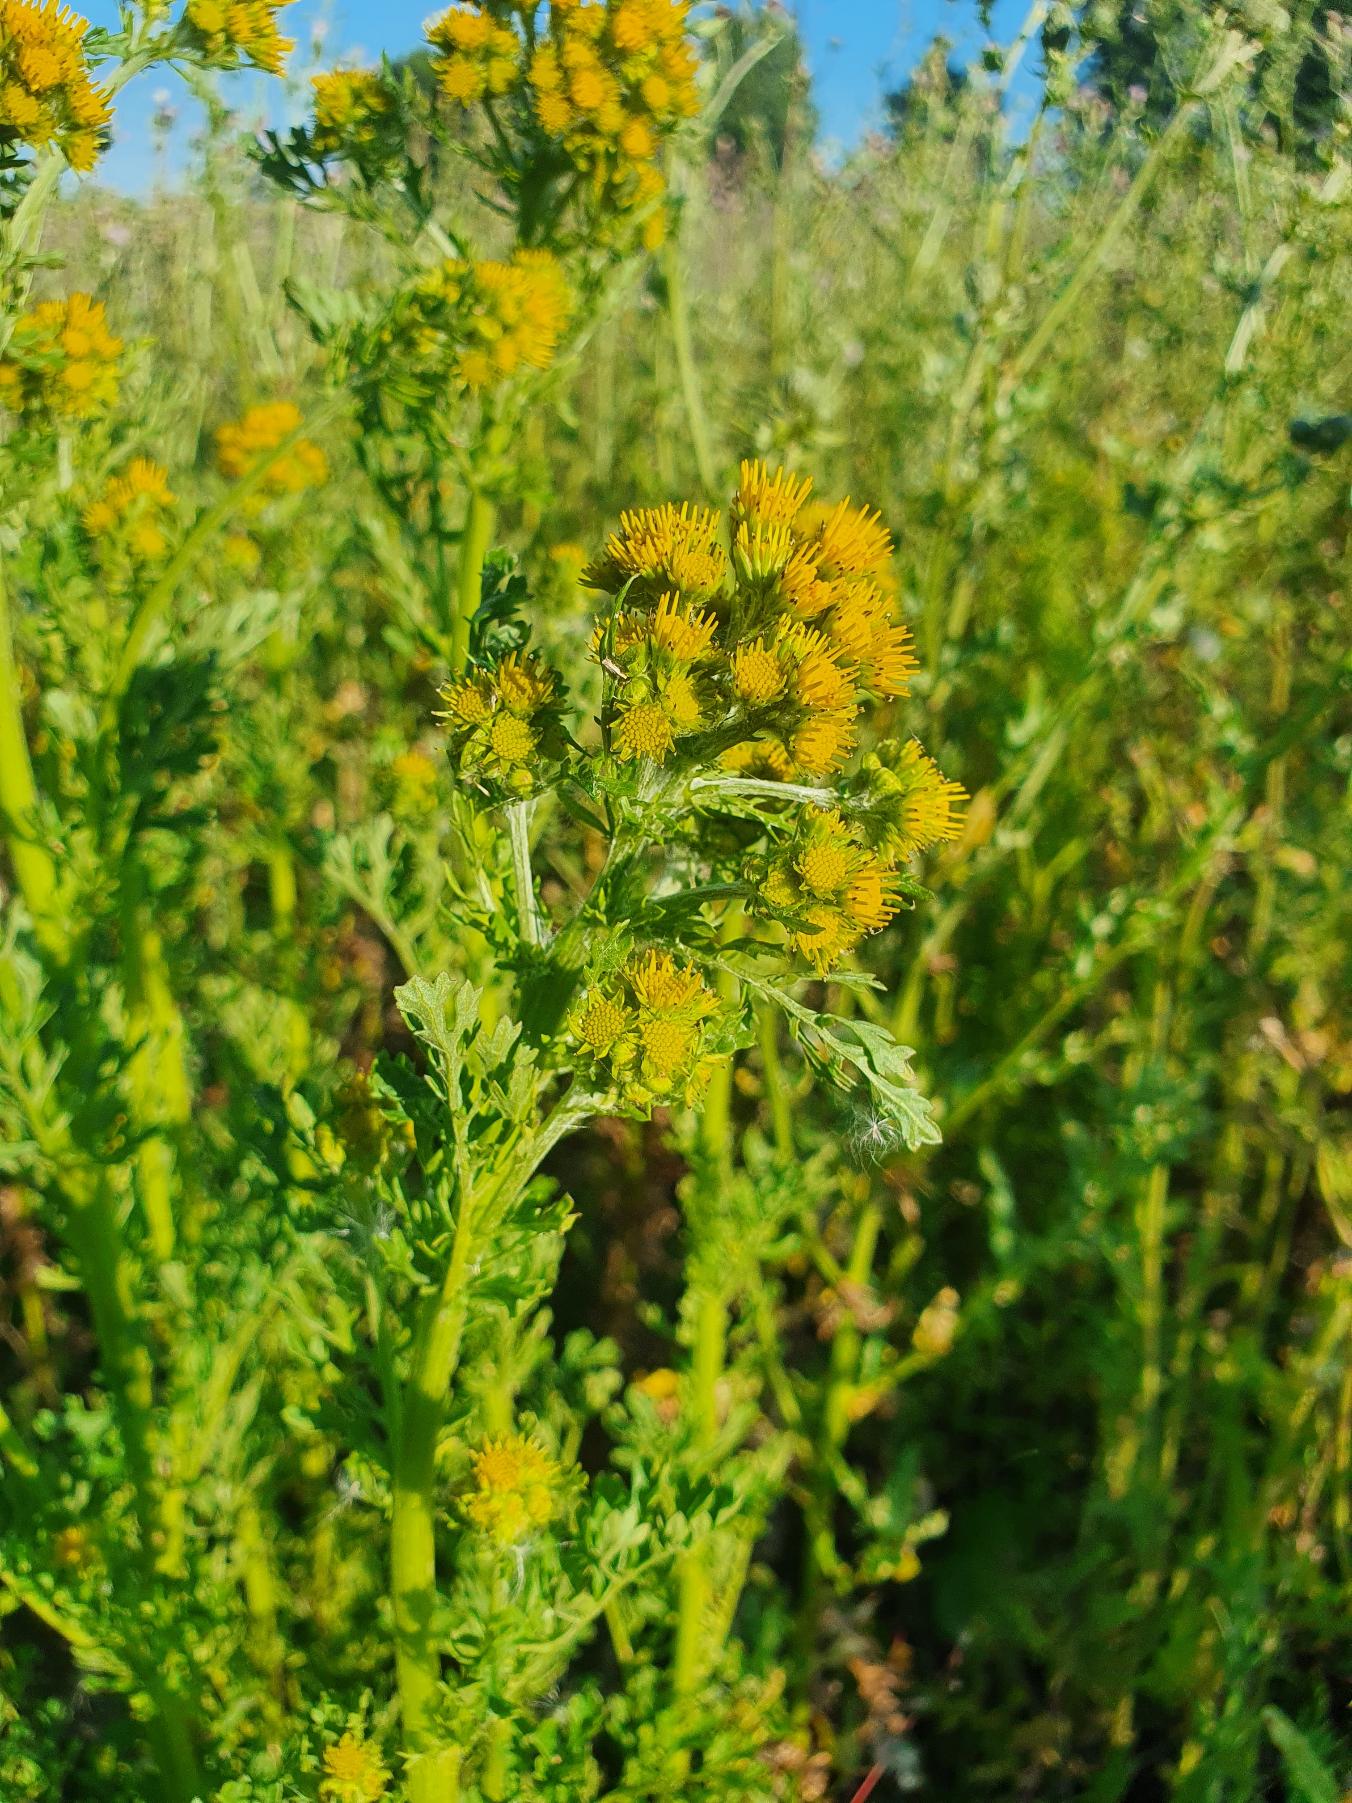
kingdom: Plantae
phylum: Tracheophyta
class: Magnoliopsida
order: Asterales
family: Asteraceae
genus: Jacobaea
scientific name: Jacobaea vulgaris
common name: Eng-brandbæger
